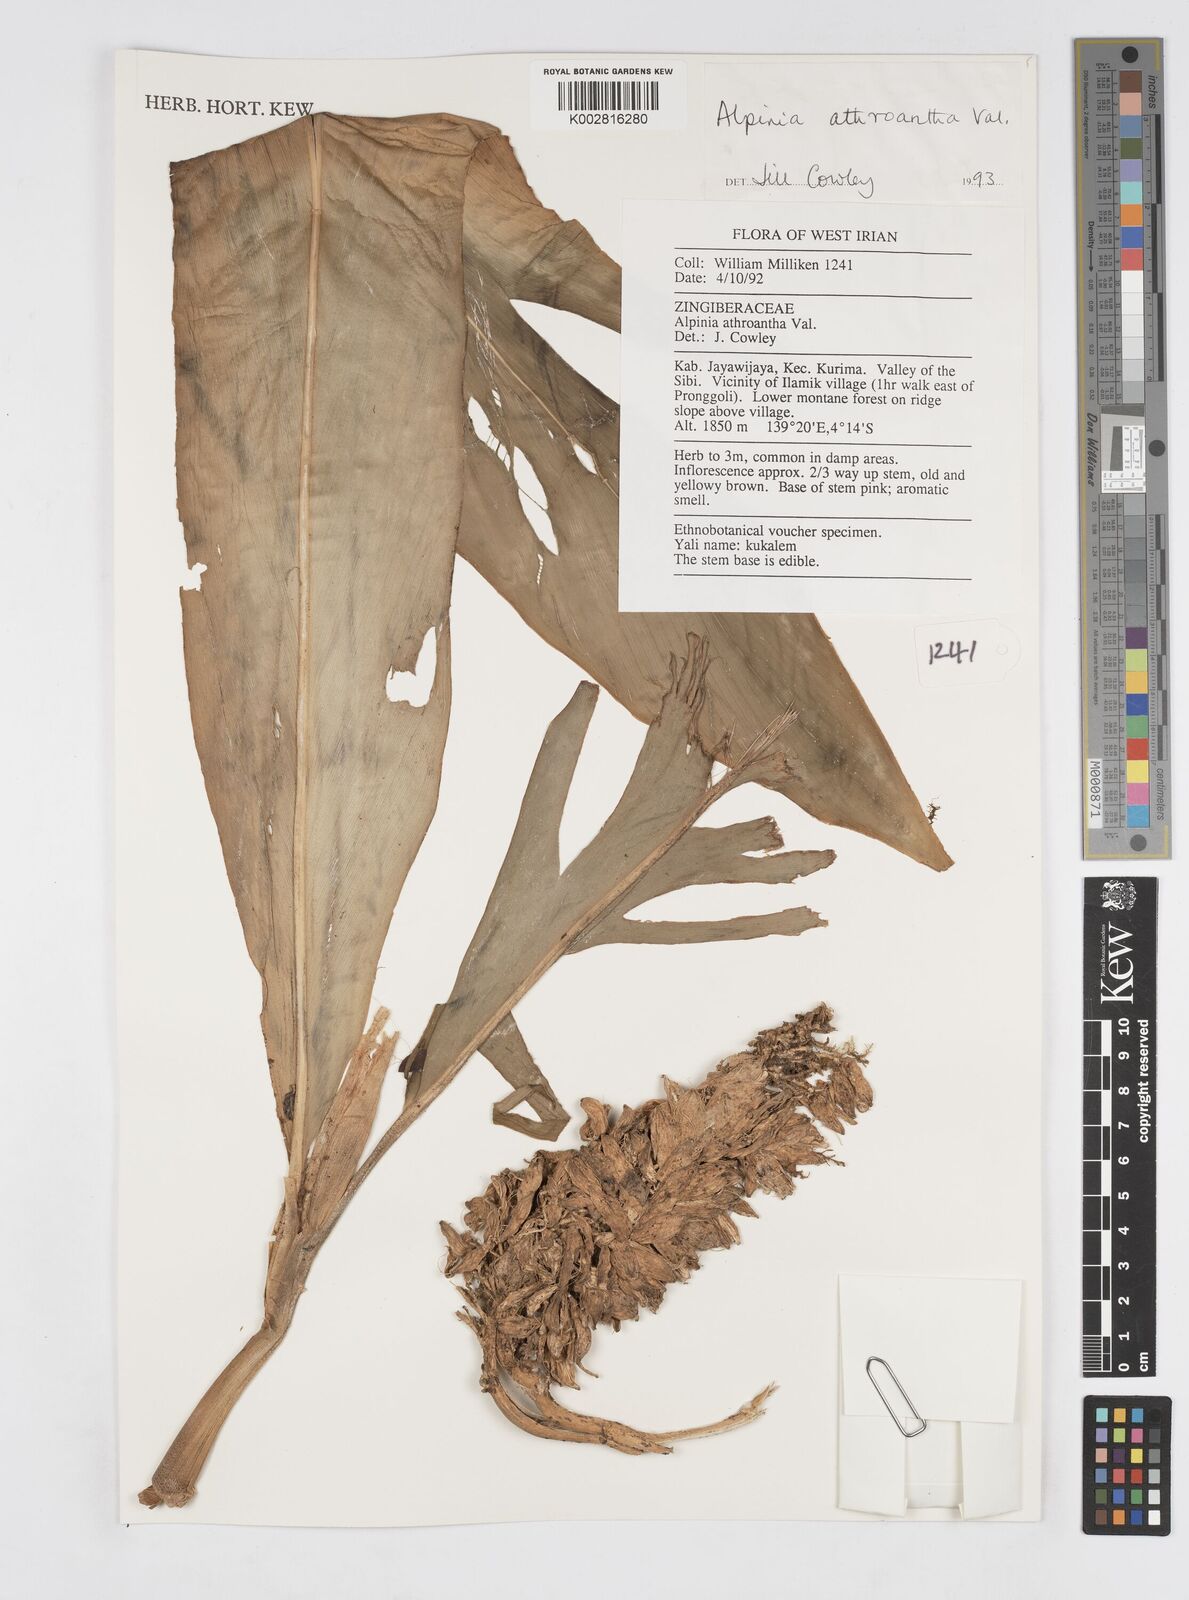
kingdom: Plantae
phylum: Tracheophyta
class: Liliopsida
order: Zingiberales
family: Zingiberaceae
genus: Alpinia
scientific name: Alpinia athroantha
